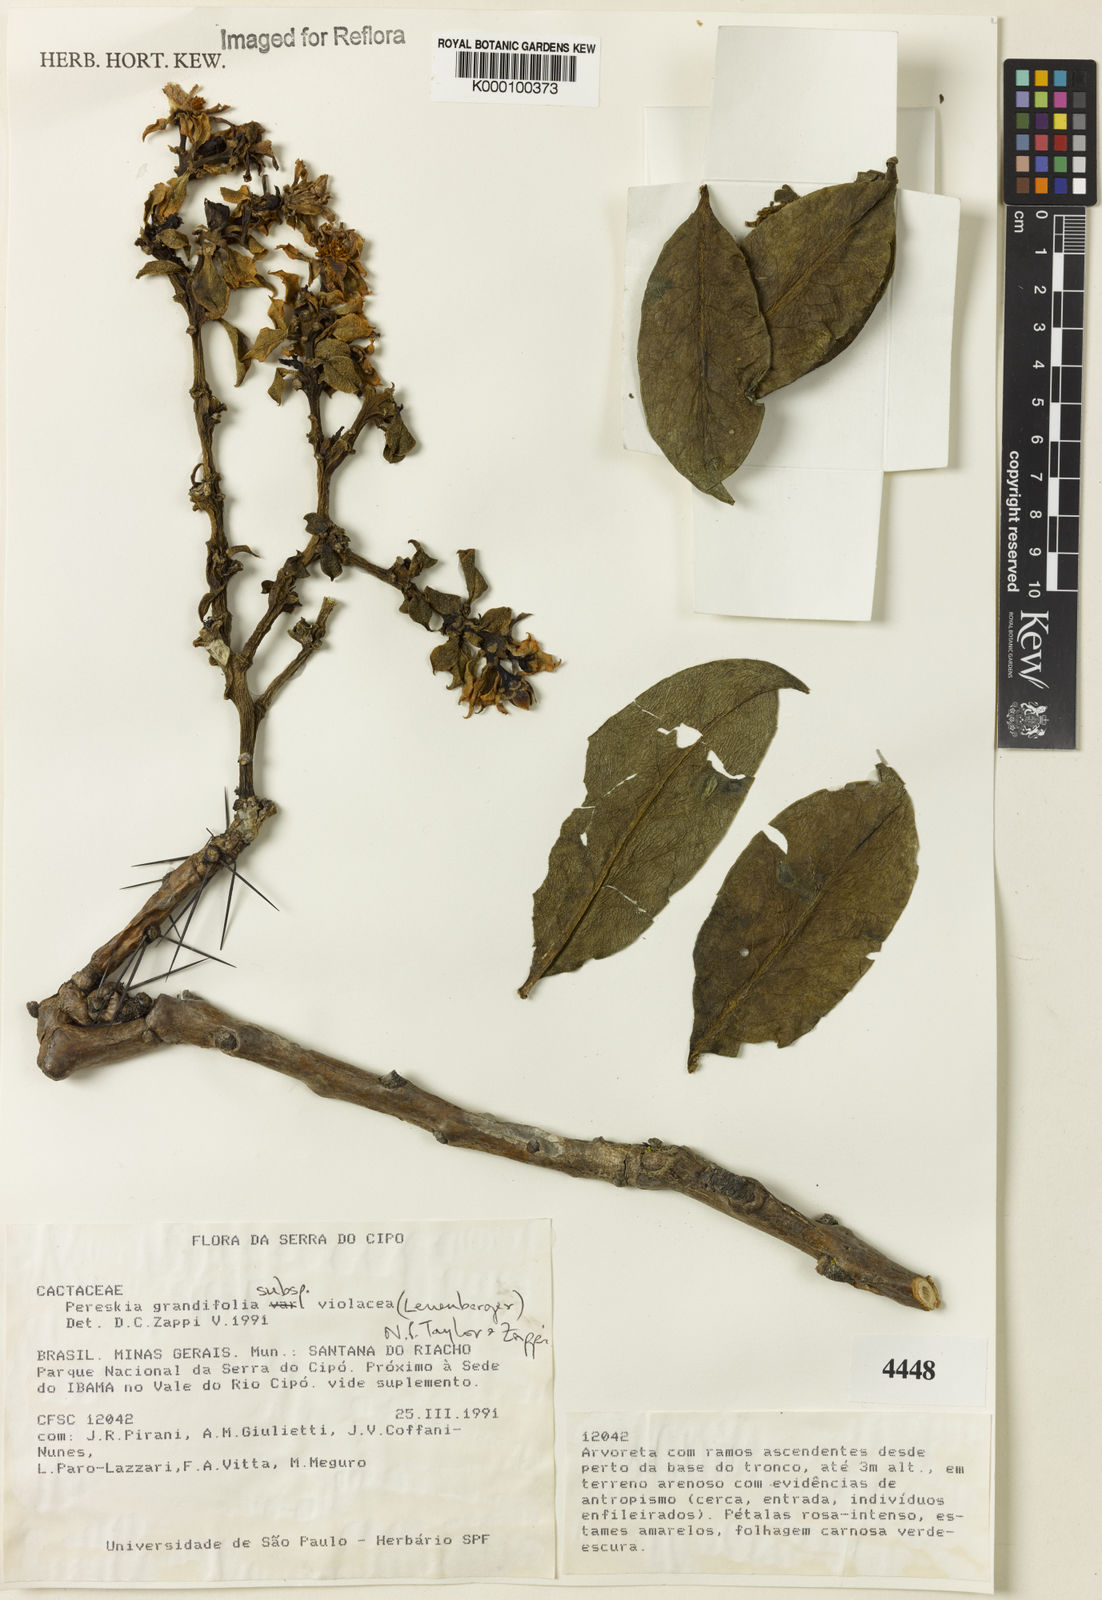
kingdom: Plantae
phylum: Tracheophyta
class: Magnoliopsida
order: Caryophyllales
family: Cactaceae
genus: Pereskia
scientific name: Pereskia violacea
